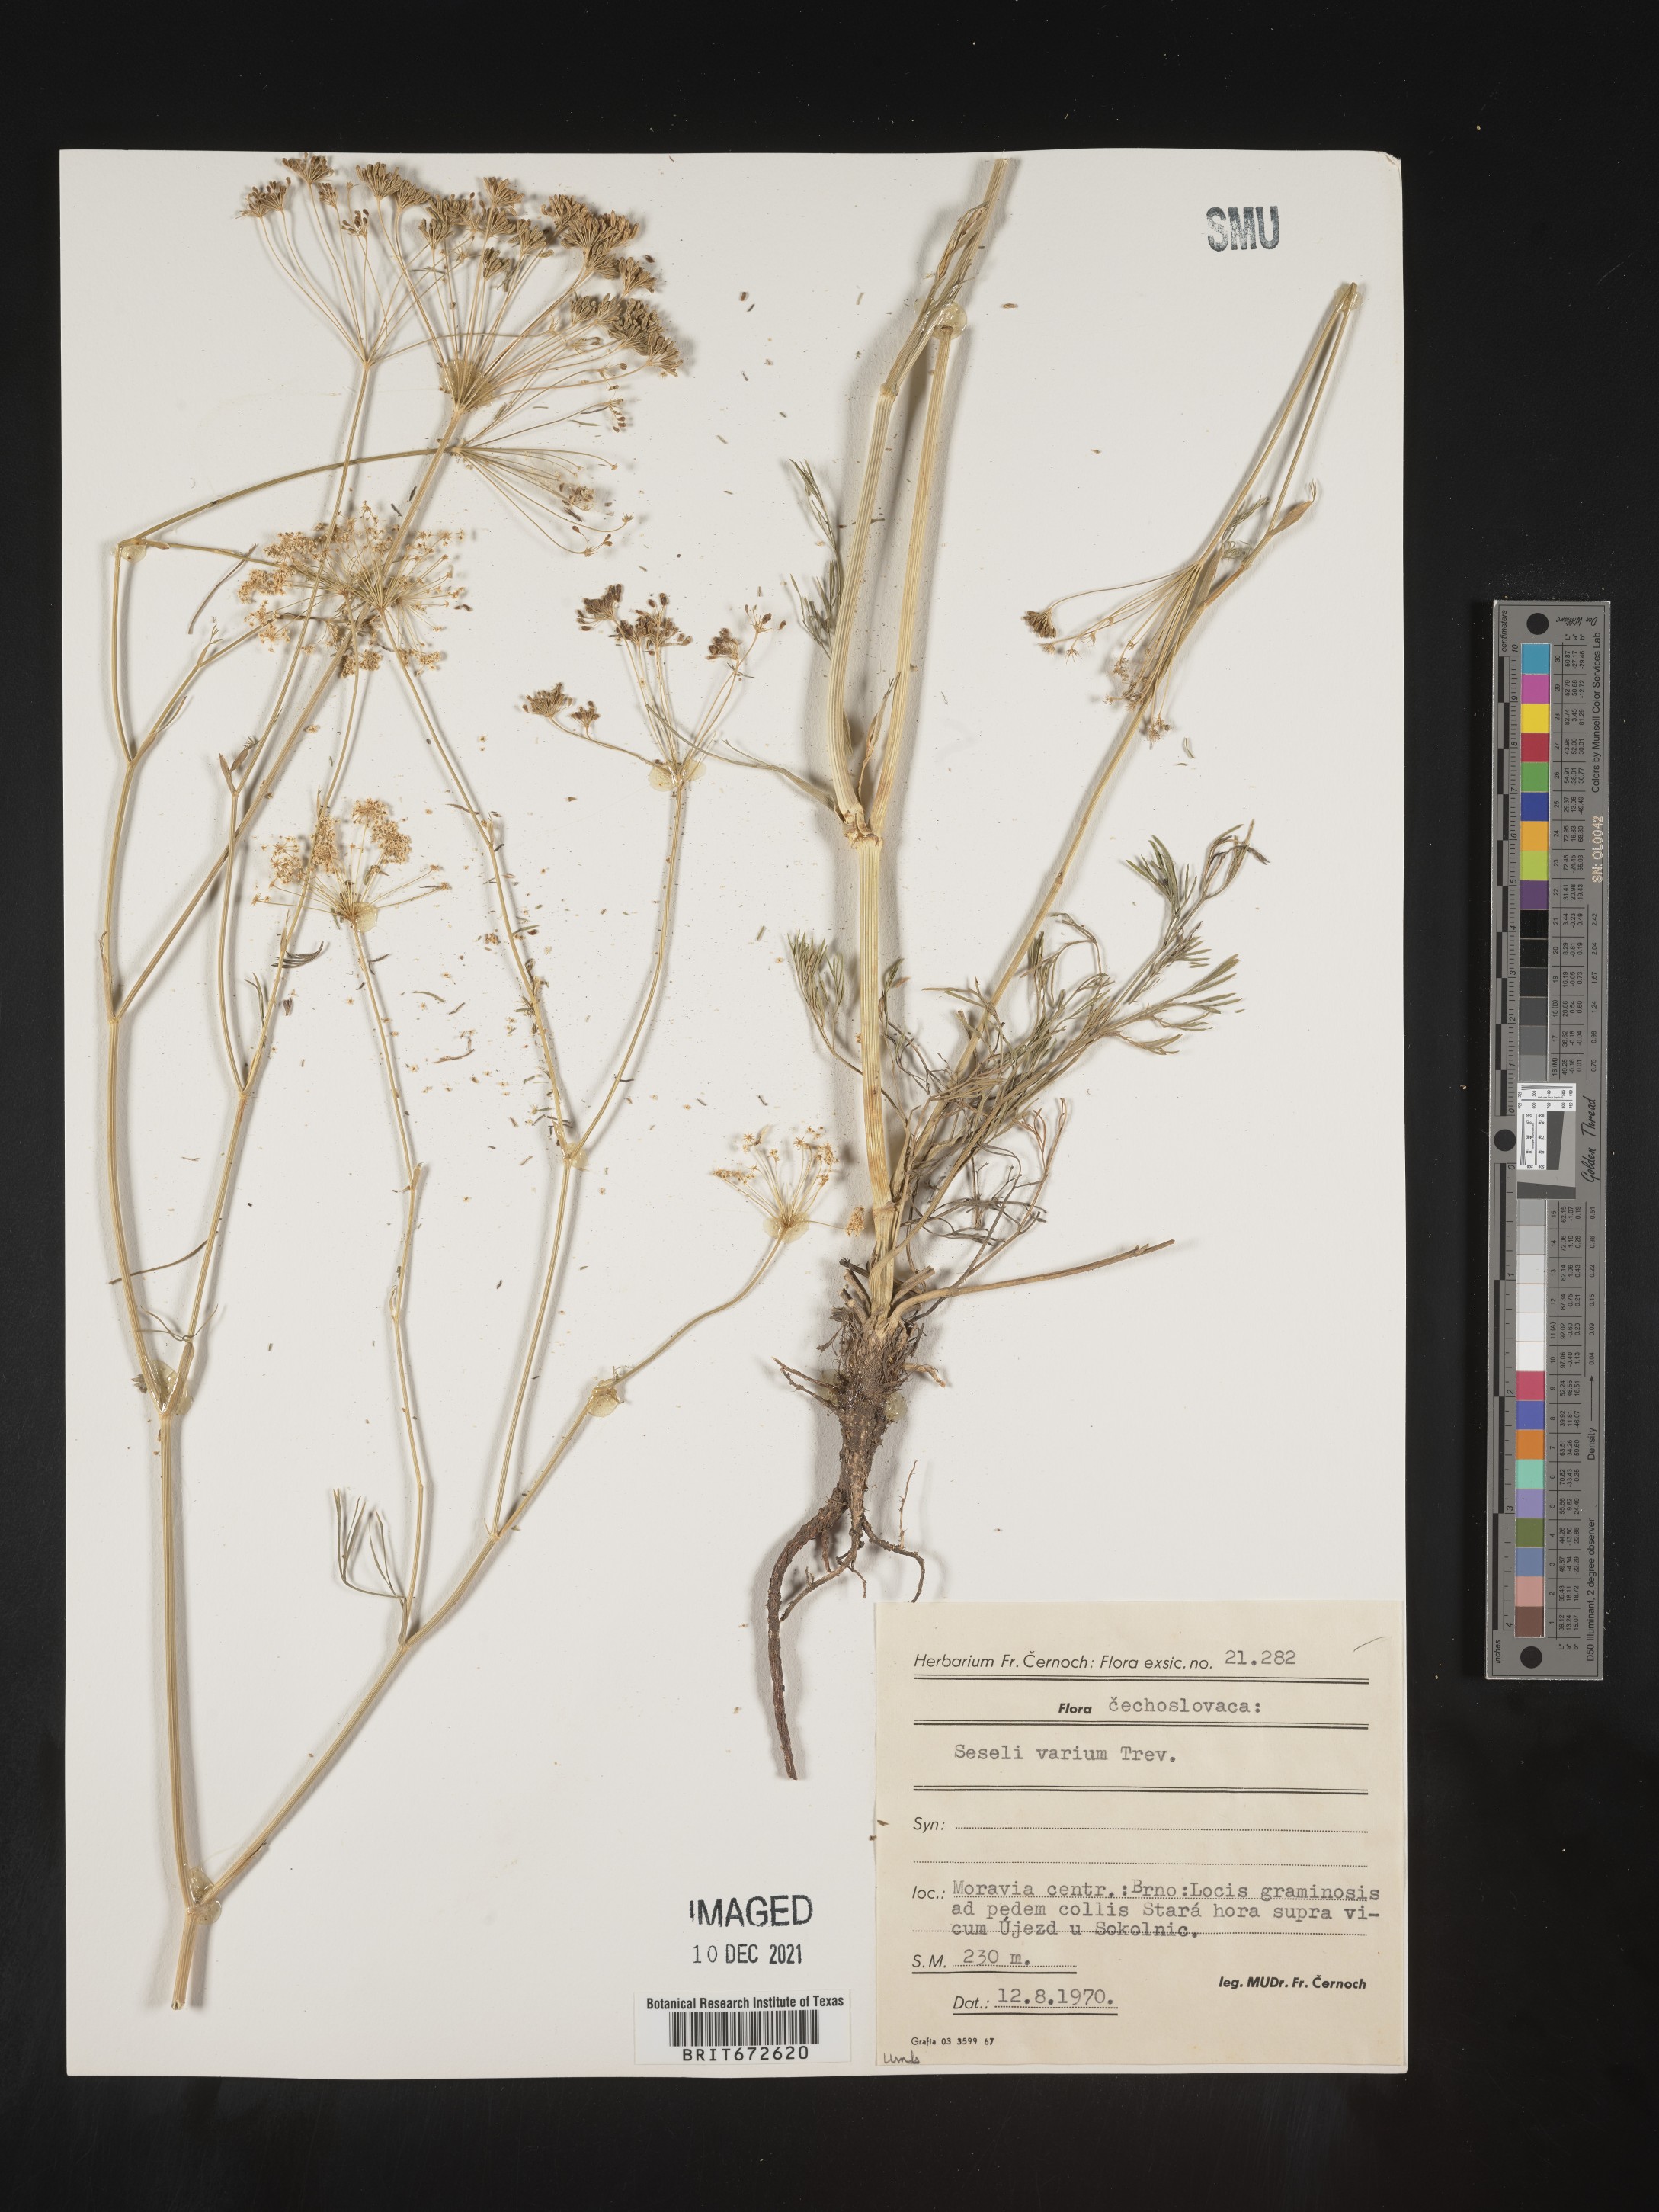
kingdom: Plantae
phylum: Tracheophyta
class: Magnoliopsida
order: Apiales
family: Apiaceae
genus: Seseli
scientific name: Seseli
